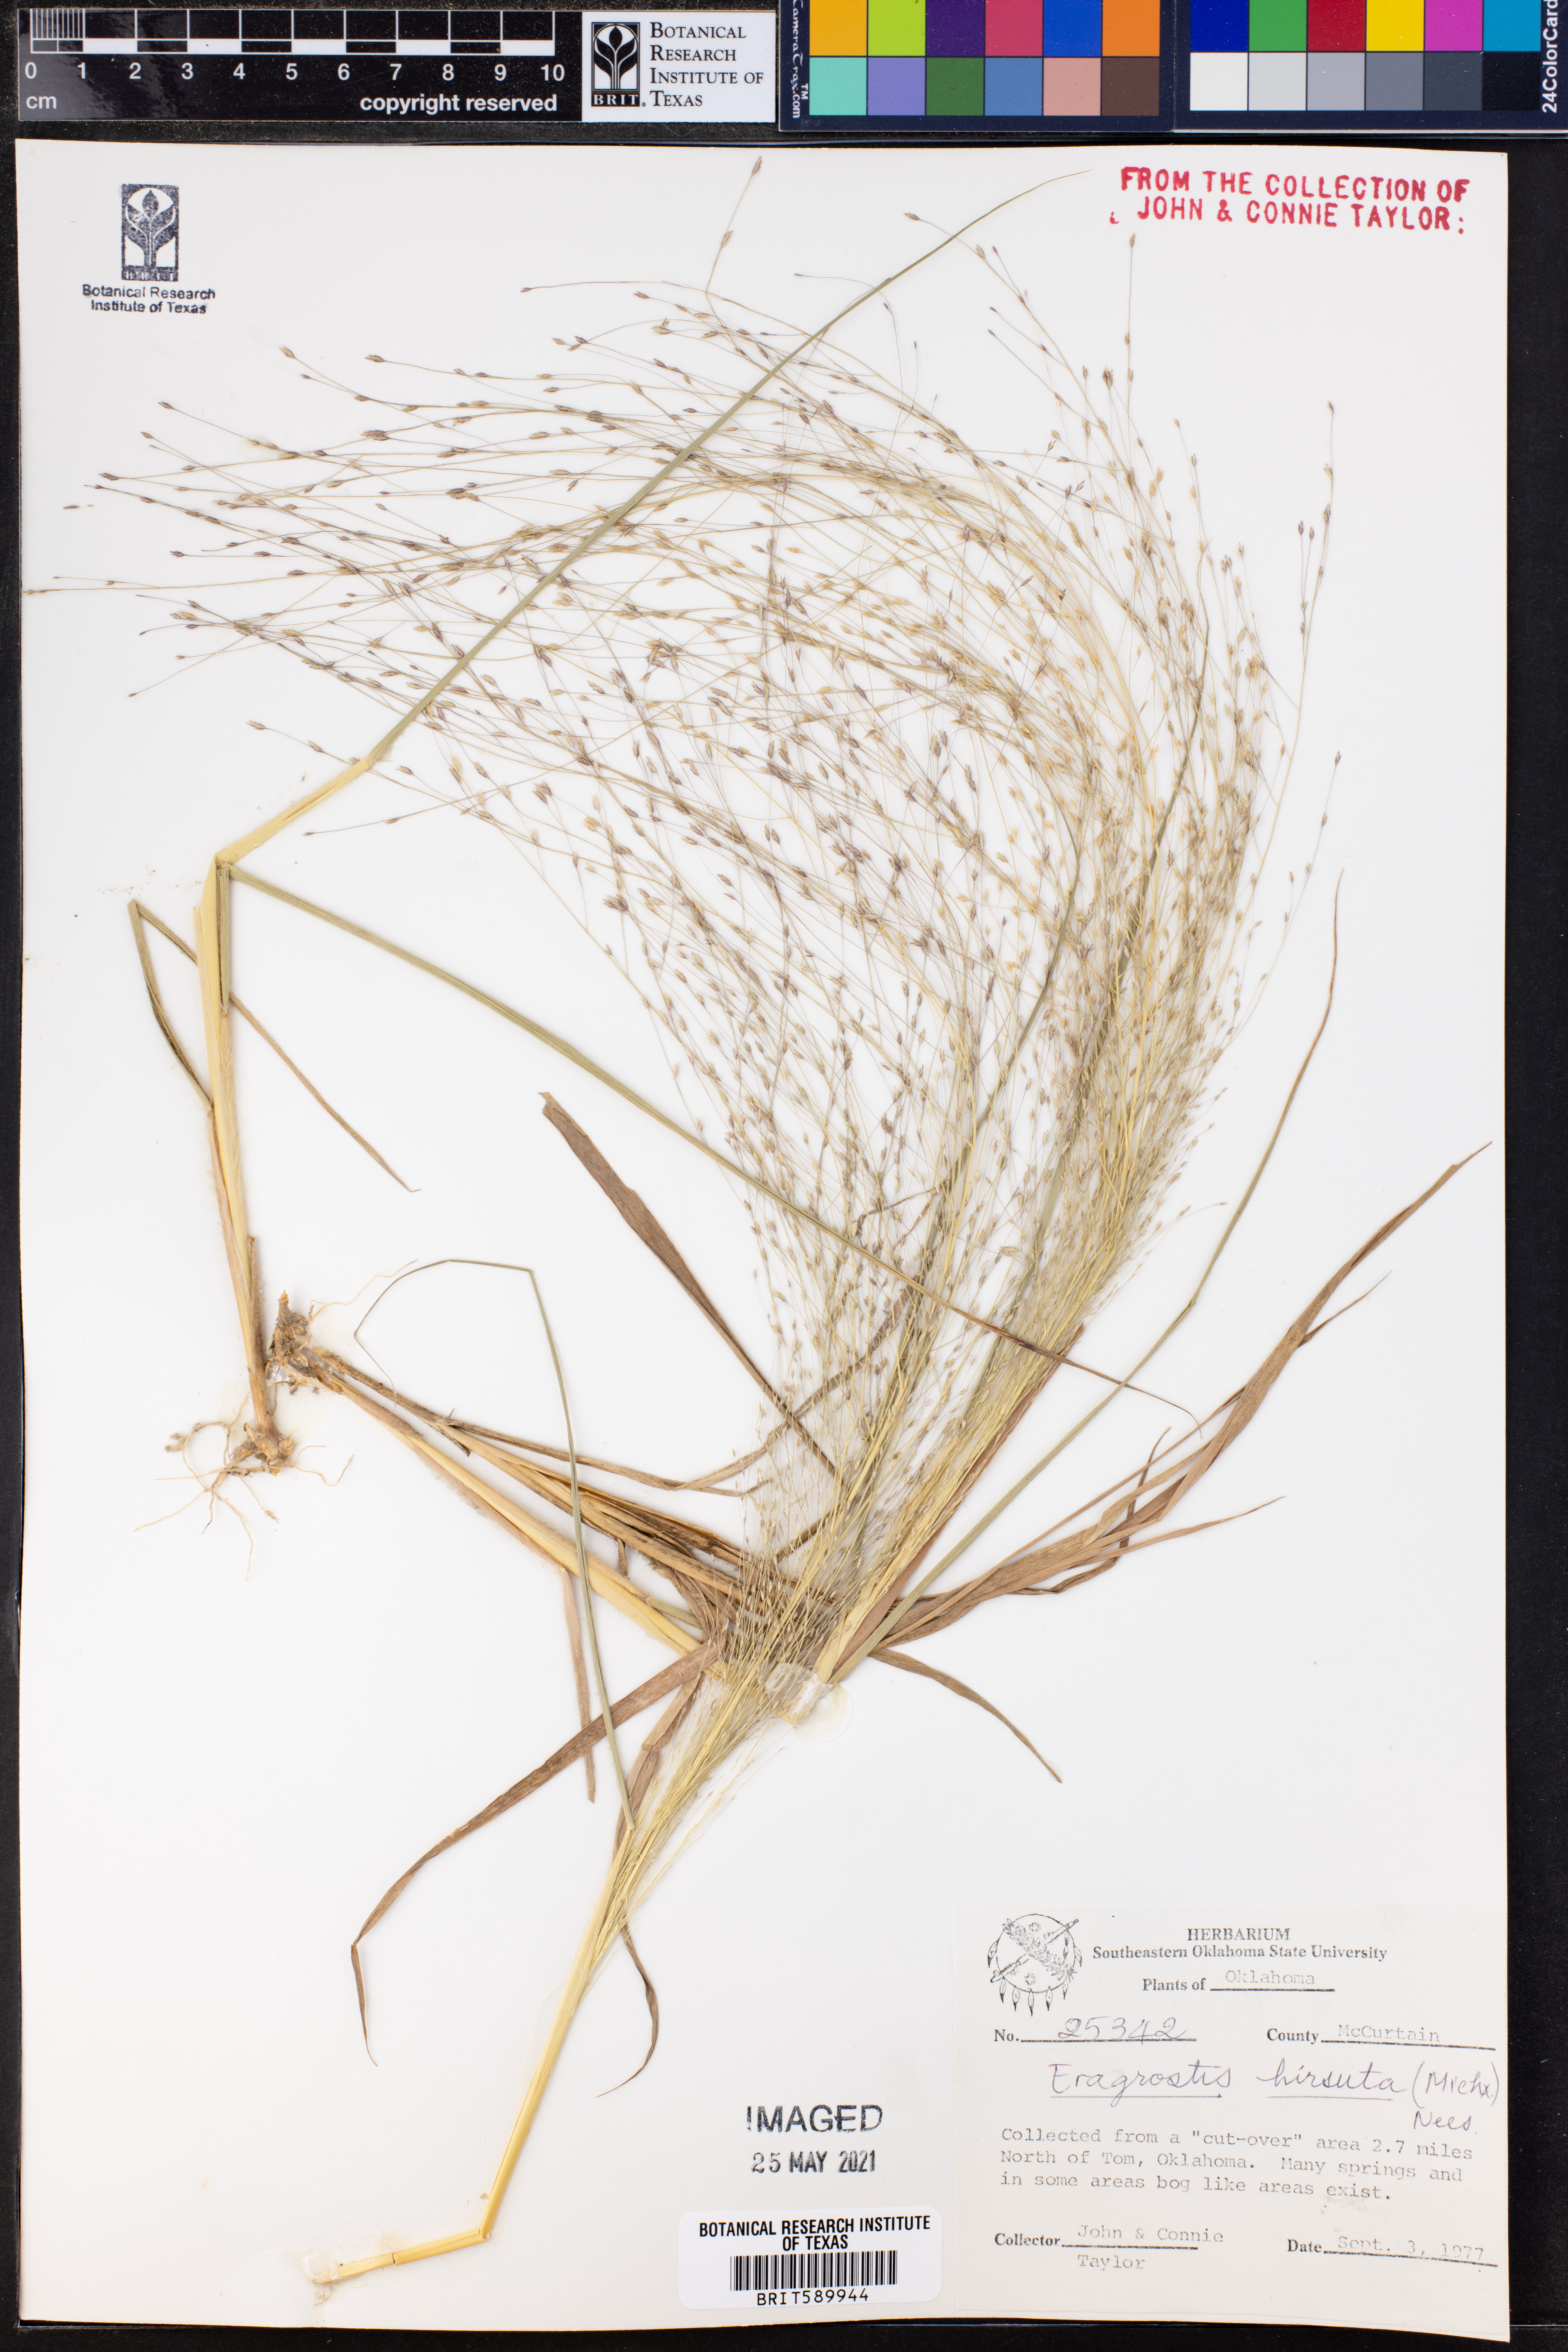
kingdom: Plantae
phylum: Tracheophyta
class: Liliopsida
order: Poales
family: Poaceae
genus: Eragrostis
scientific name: Eragrostis hirsuta
